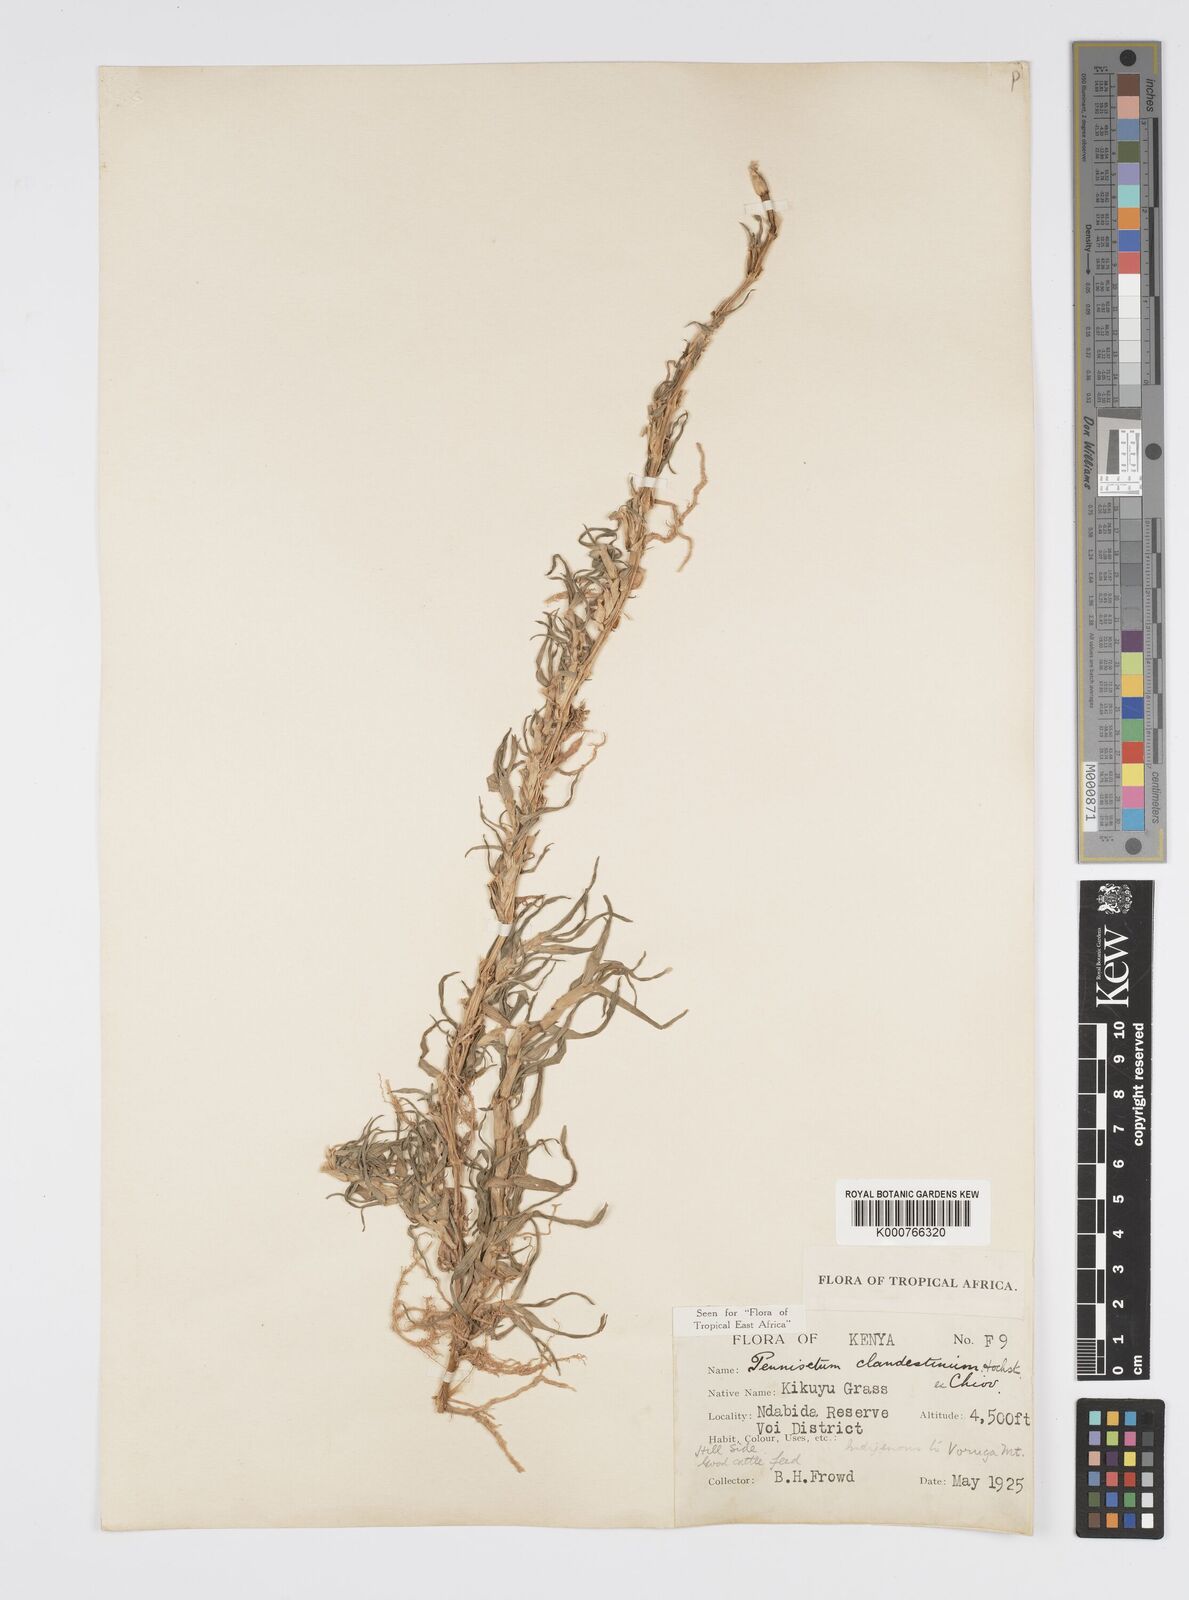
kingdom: Plantae
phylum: Tracheophyta
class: Liliopsida
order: Poales
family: Poaceae
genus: Cenchrus
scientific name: Cenchrus clandestinus
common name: Kikuyugrass
